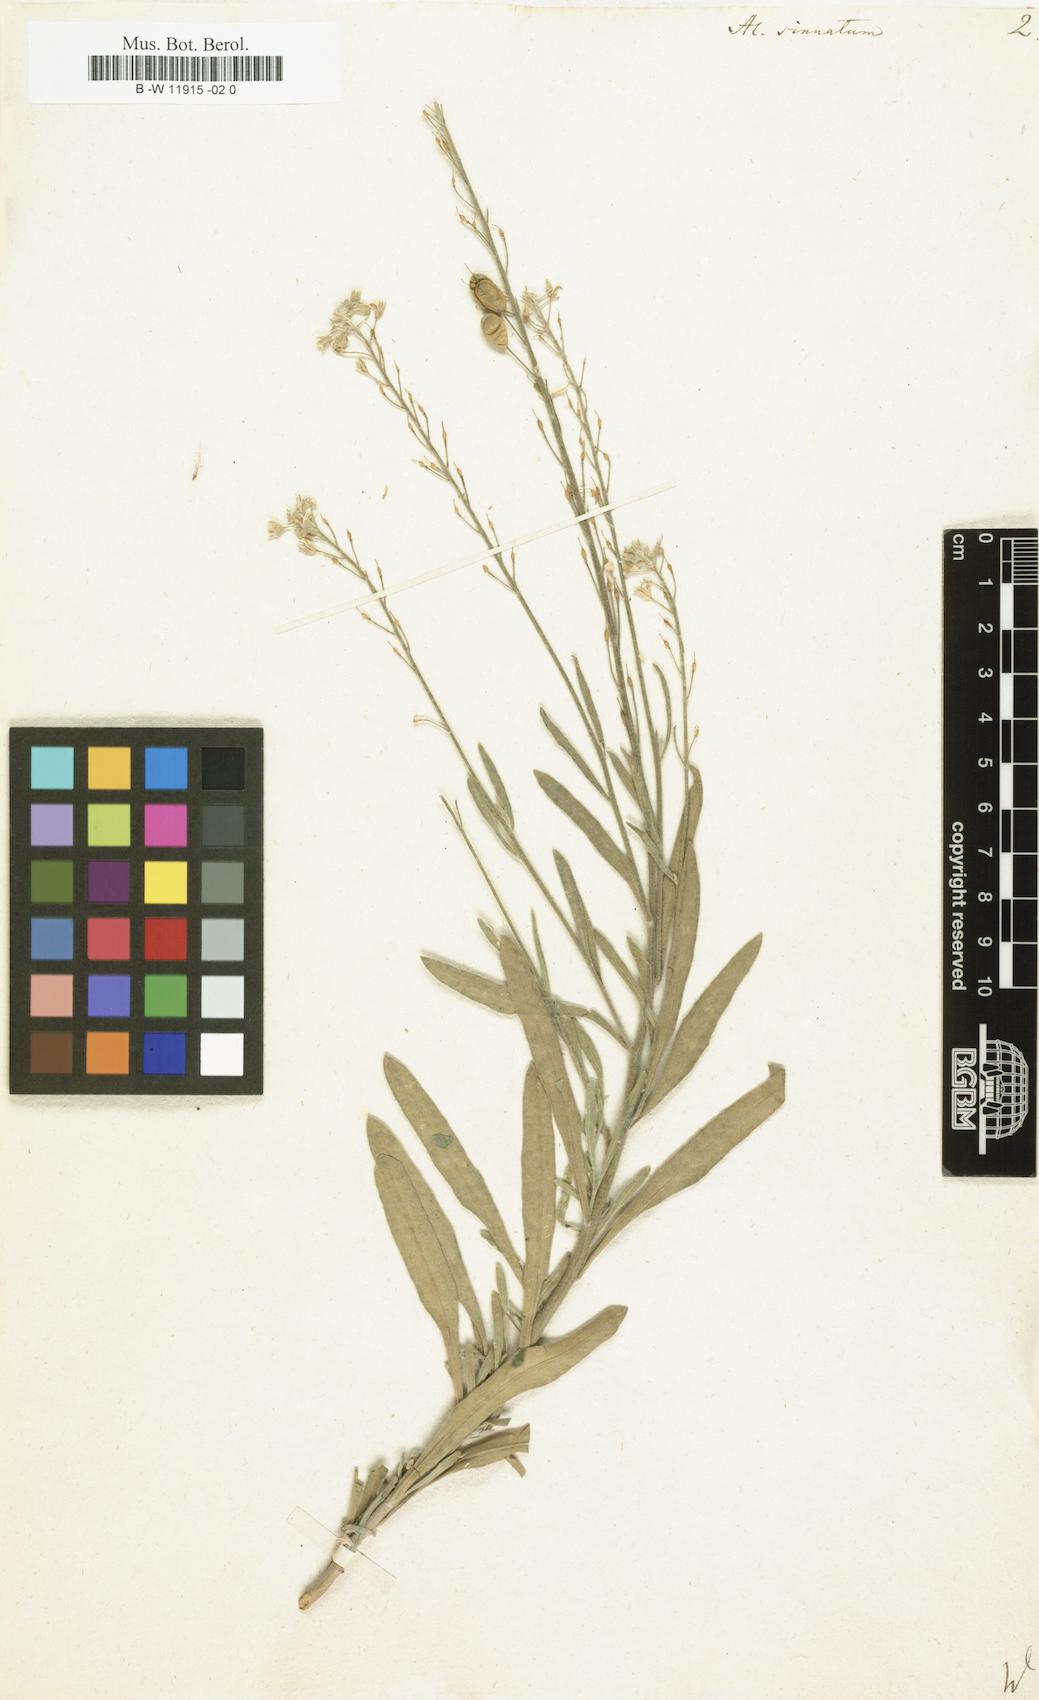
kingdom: Plantae
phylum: Tracheophyta
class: Magnoliopsida
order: Brassicales
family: Brassicaceae
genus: Aurinia
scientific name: Aurinia sinuata
